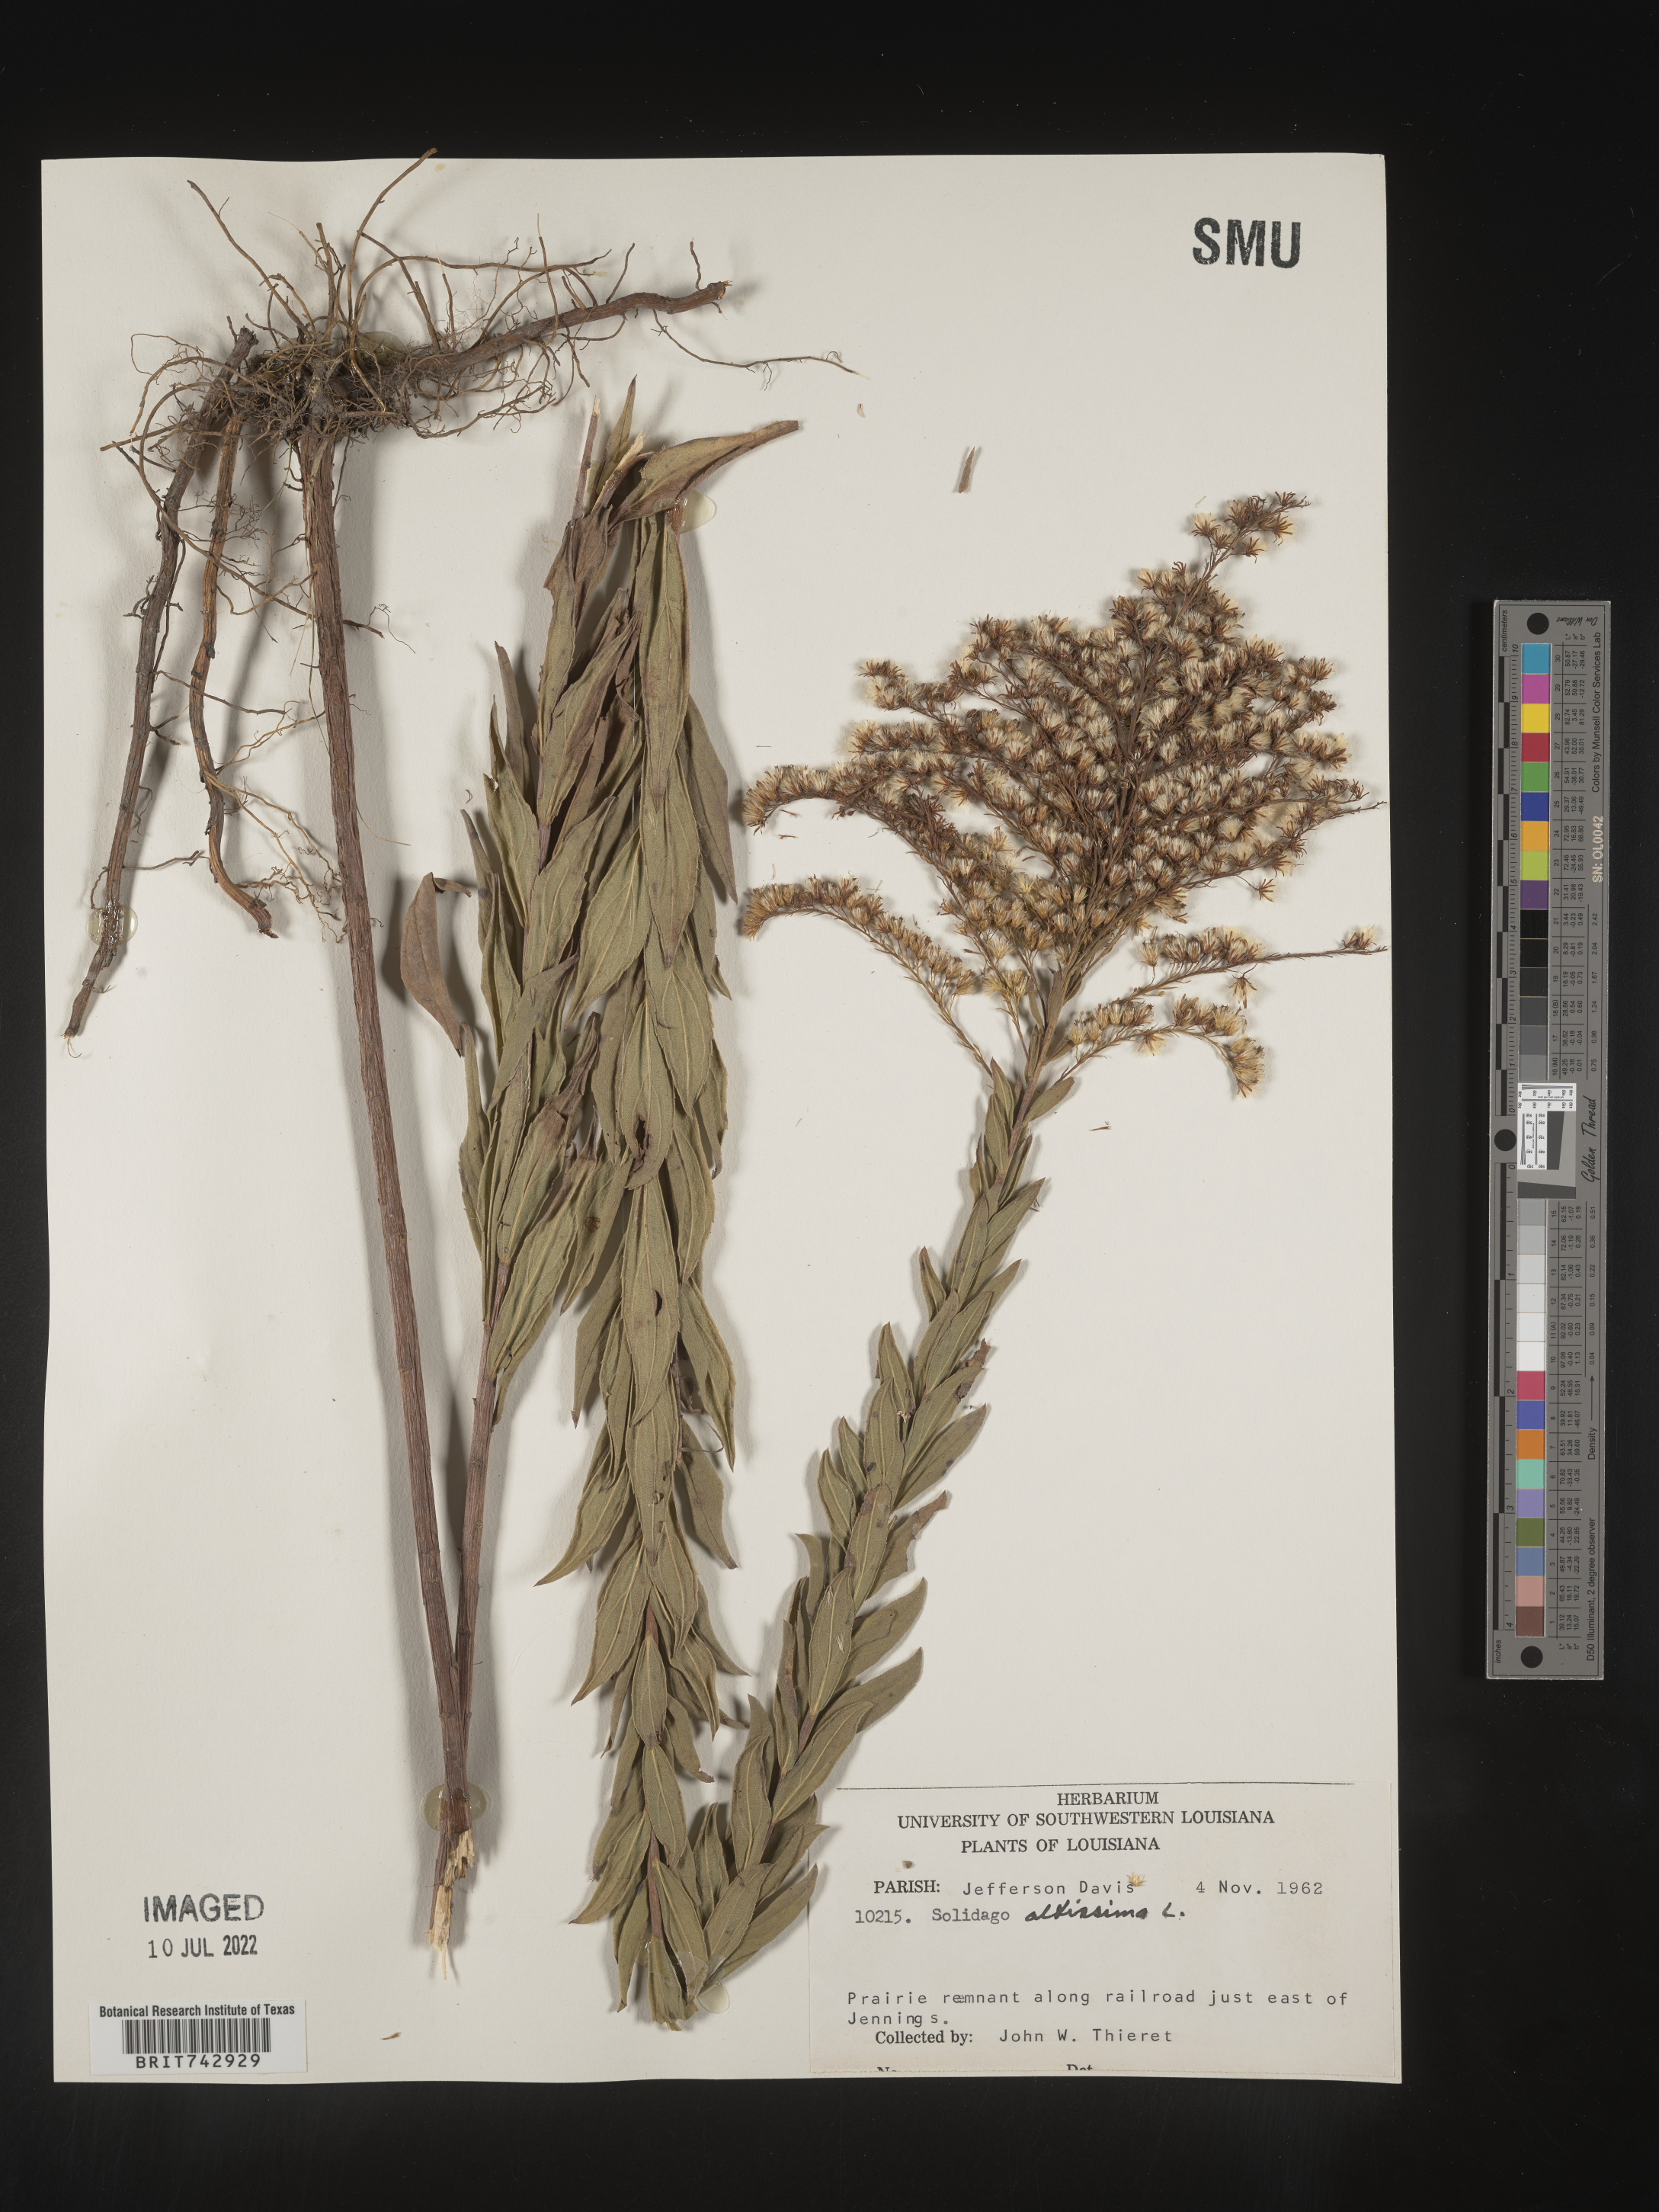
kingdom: Plantae
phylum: Tracheophyta
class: Magnoliopsida
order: Asterales
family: Asteraceae
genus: Solidago
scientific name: Solidago altissima
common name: Late goldenrod
